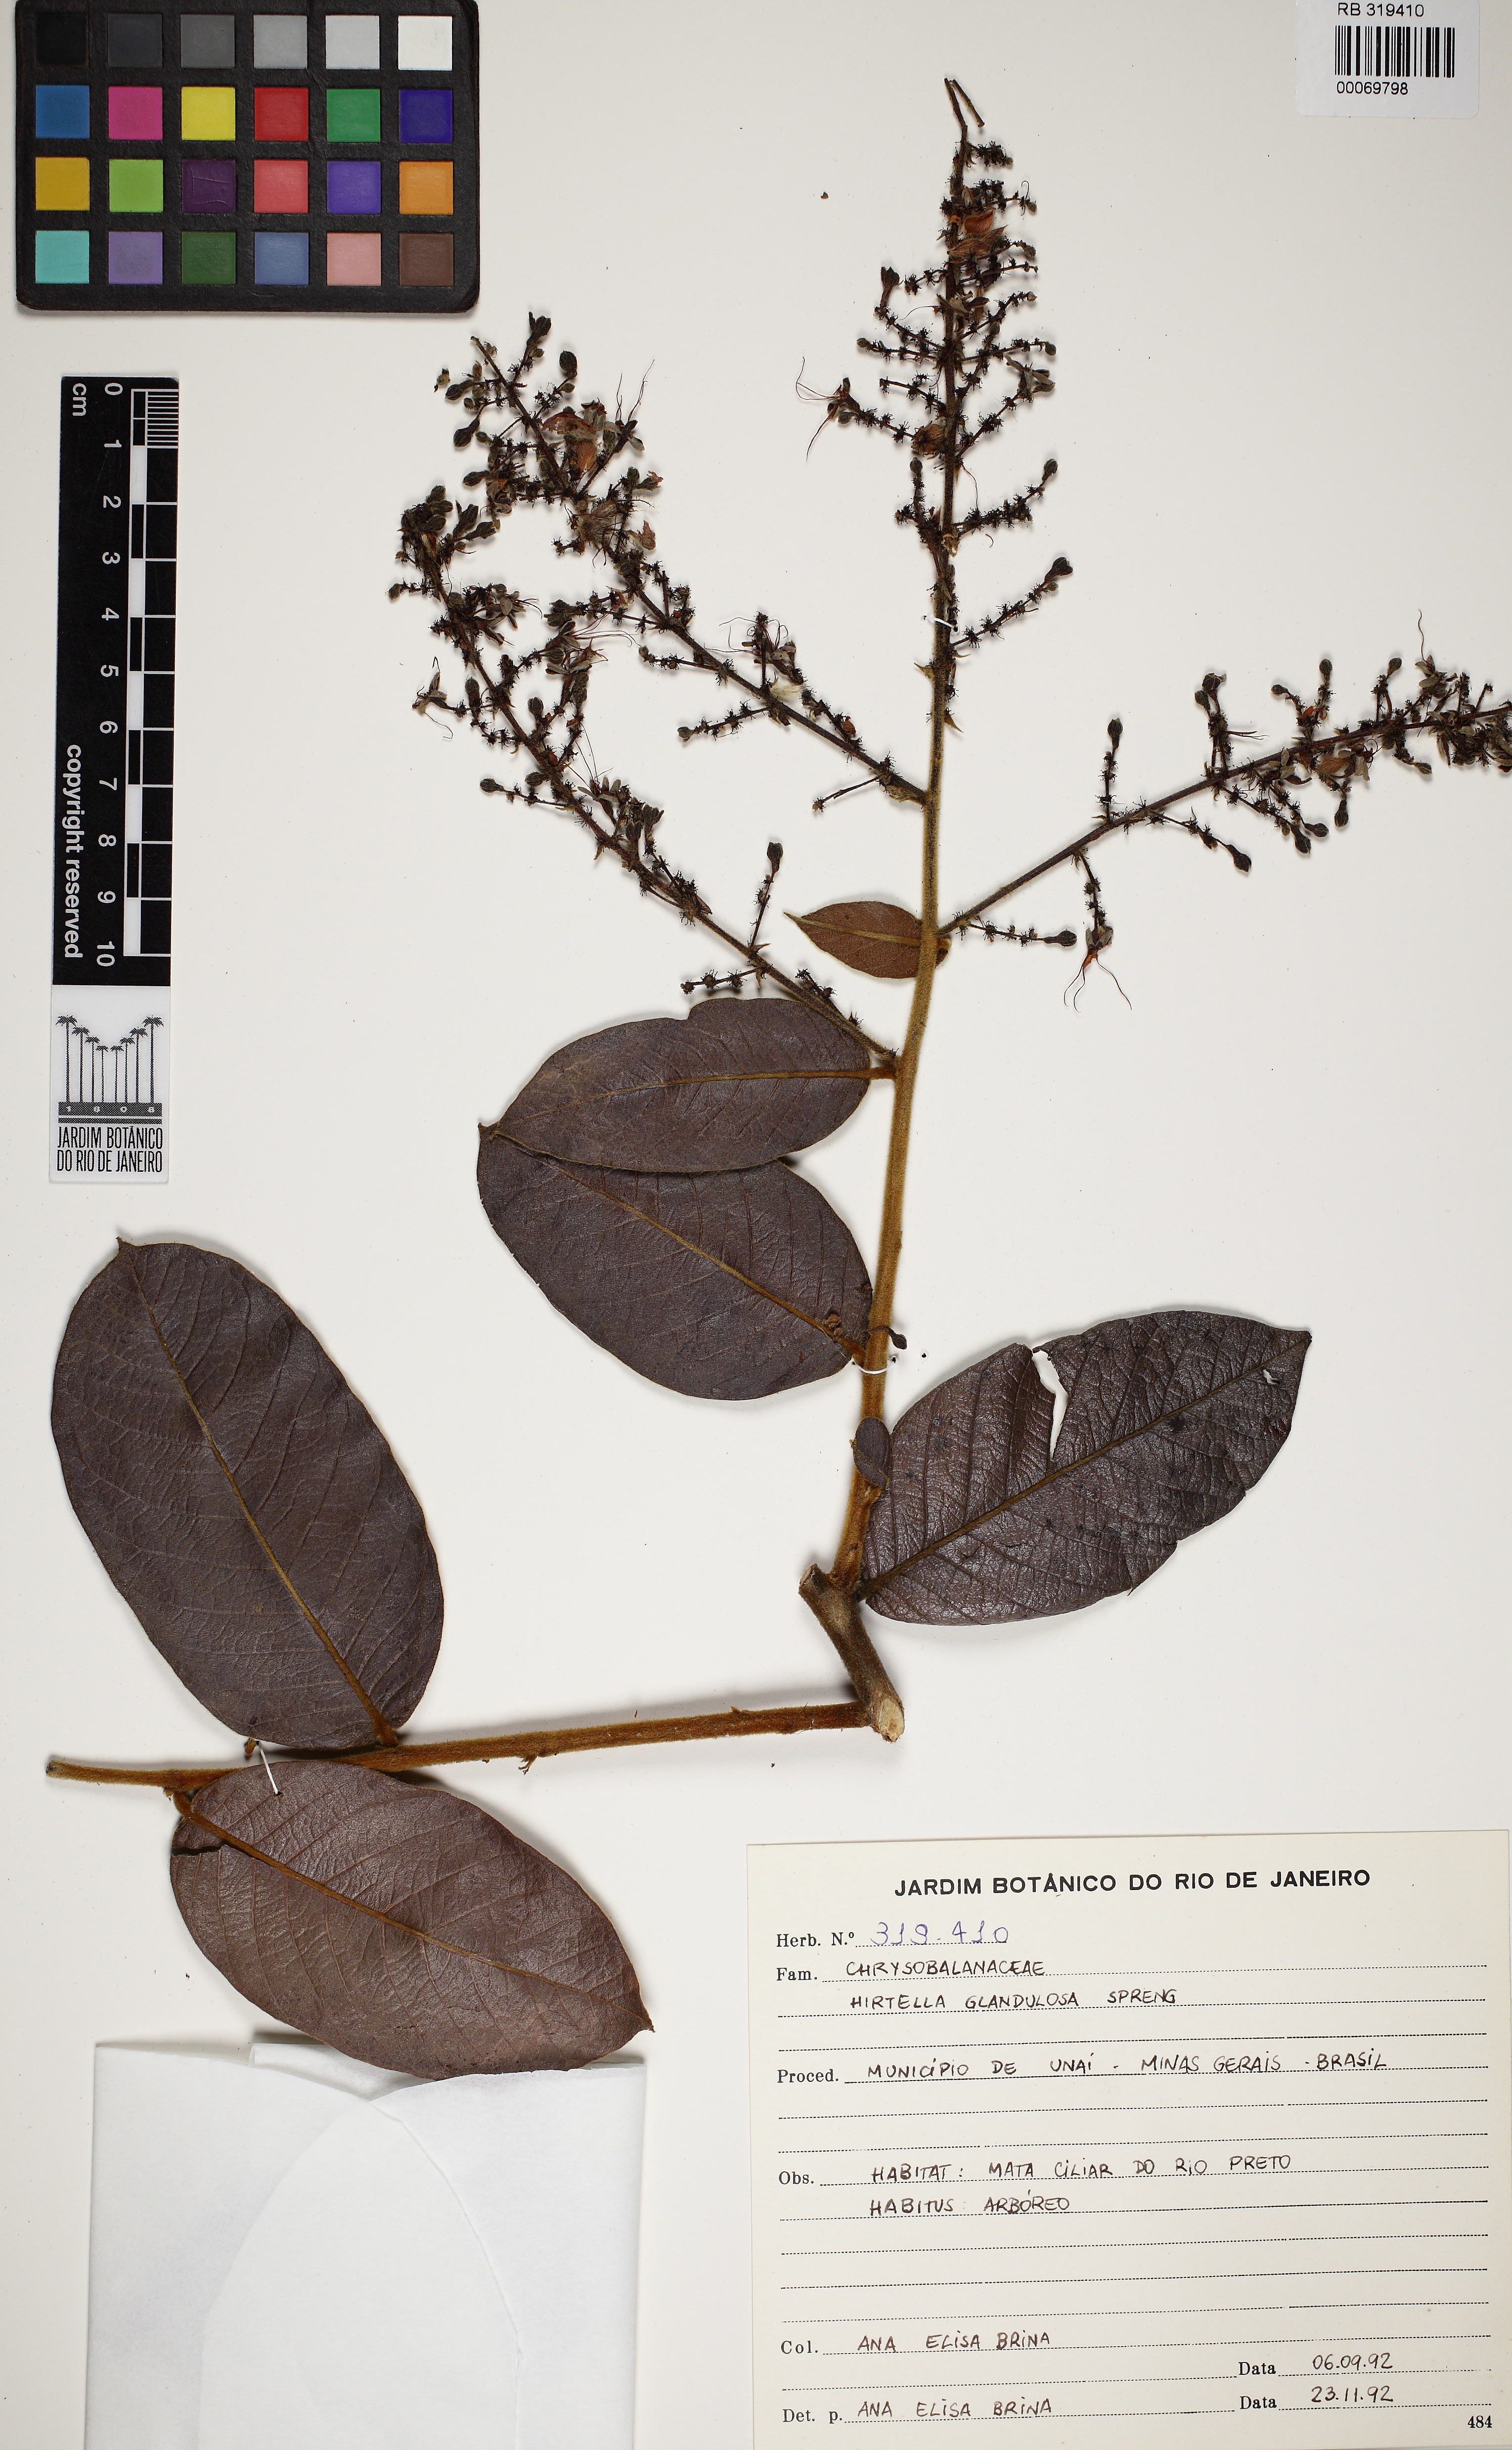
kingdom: Plantae
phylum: Tracheophyta
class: Magnoliopsida
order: Malpighiales
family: Chrysobalanaceae
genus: Hirtella
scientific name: Hirtella glandulosa
